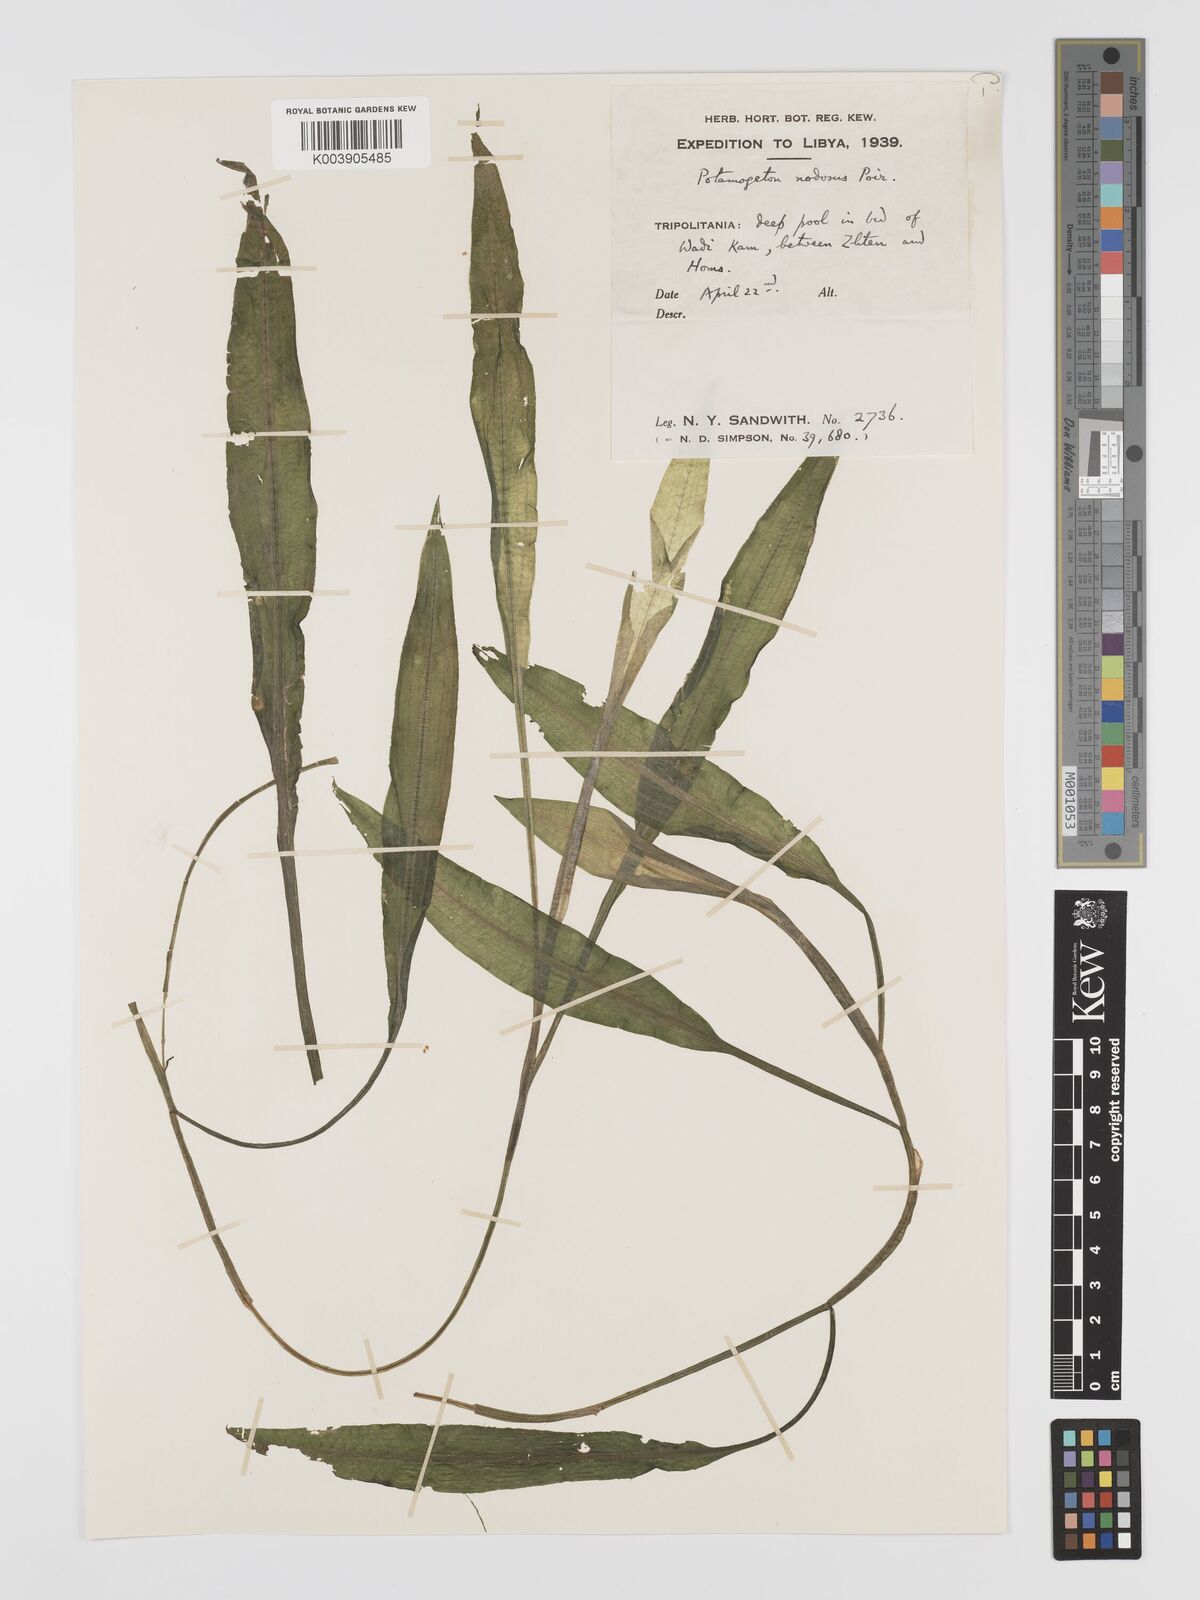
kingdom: Plantae
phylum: Tracheophyta
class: Liliopsida
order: Alismatales
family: Potamogetonaceae
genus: Potamogeton
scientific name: Potamogeton nodosus
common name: Loddon pondweed
